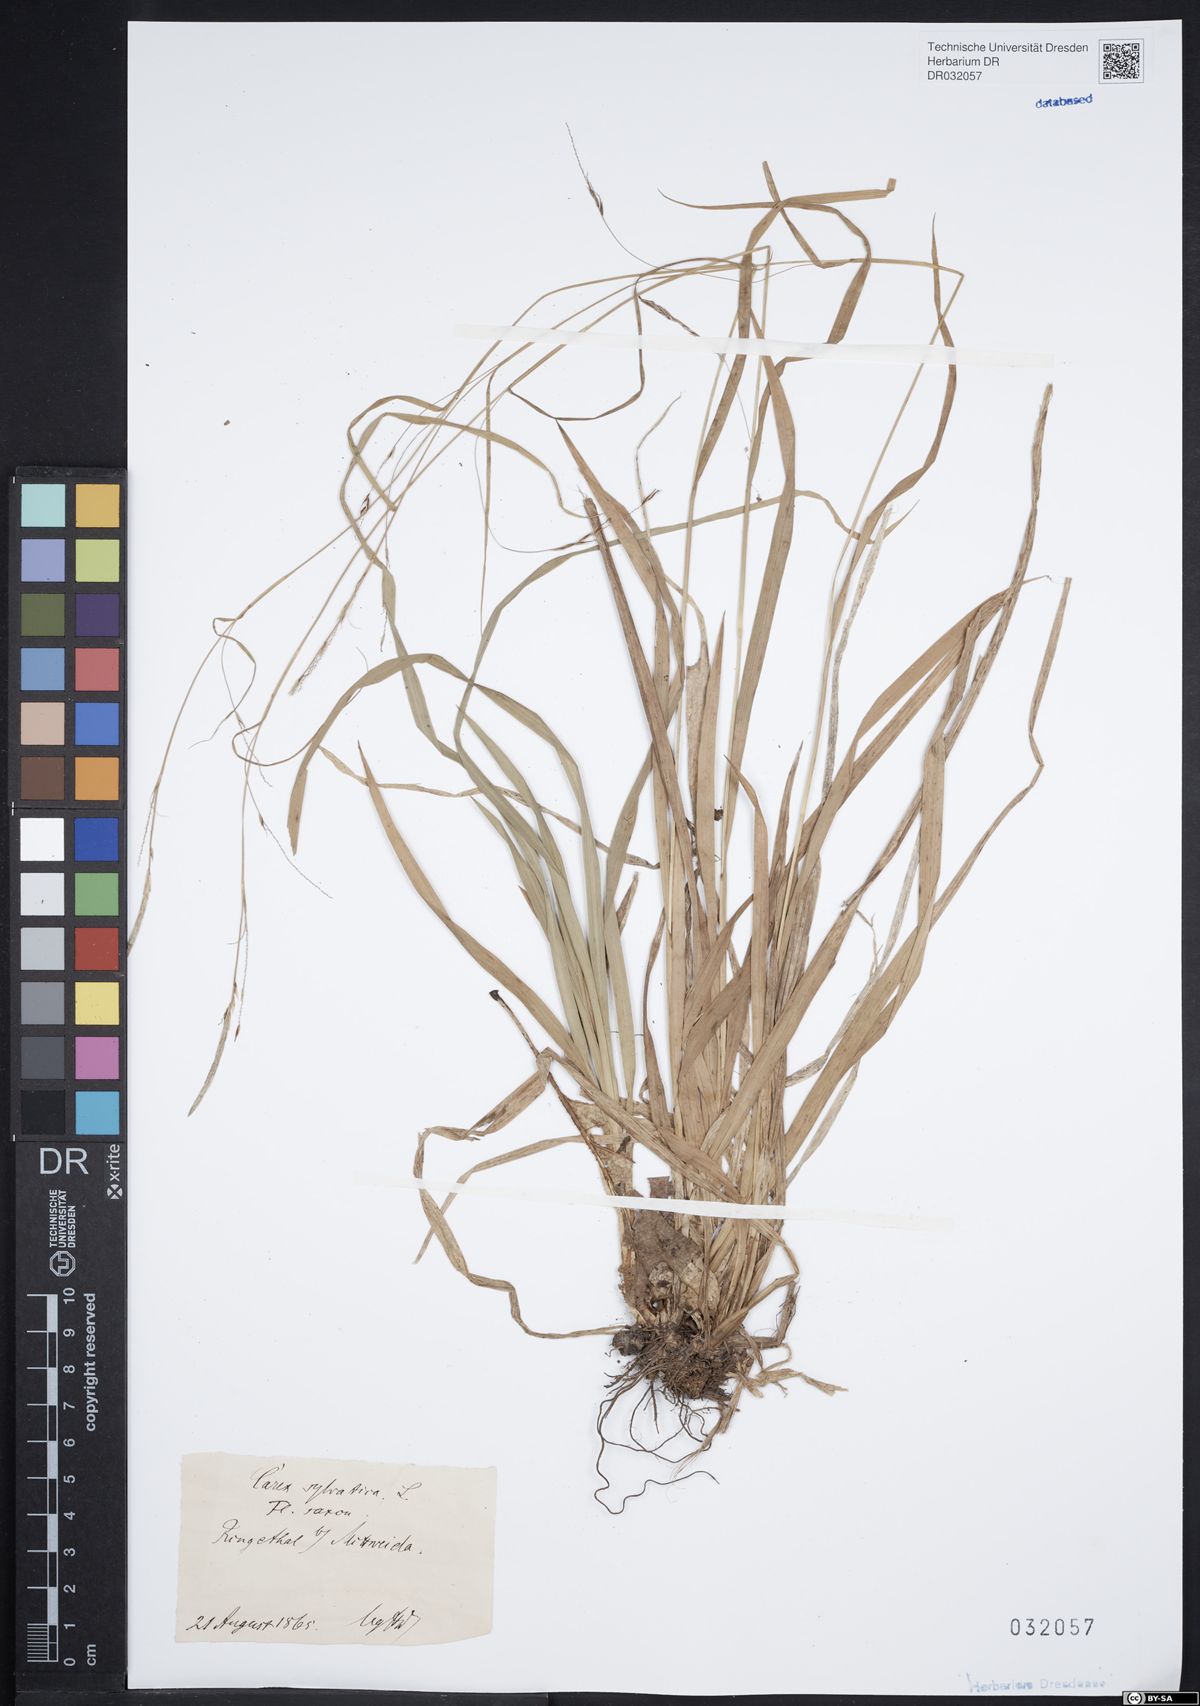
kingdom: Plantae
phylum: Tracheophyta
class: Liliopsida
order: Poales
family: Cyperaceae
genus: Carex
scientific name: Carex sylvatica
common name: Wood-sedge
